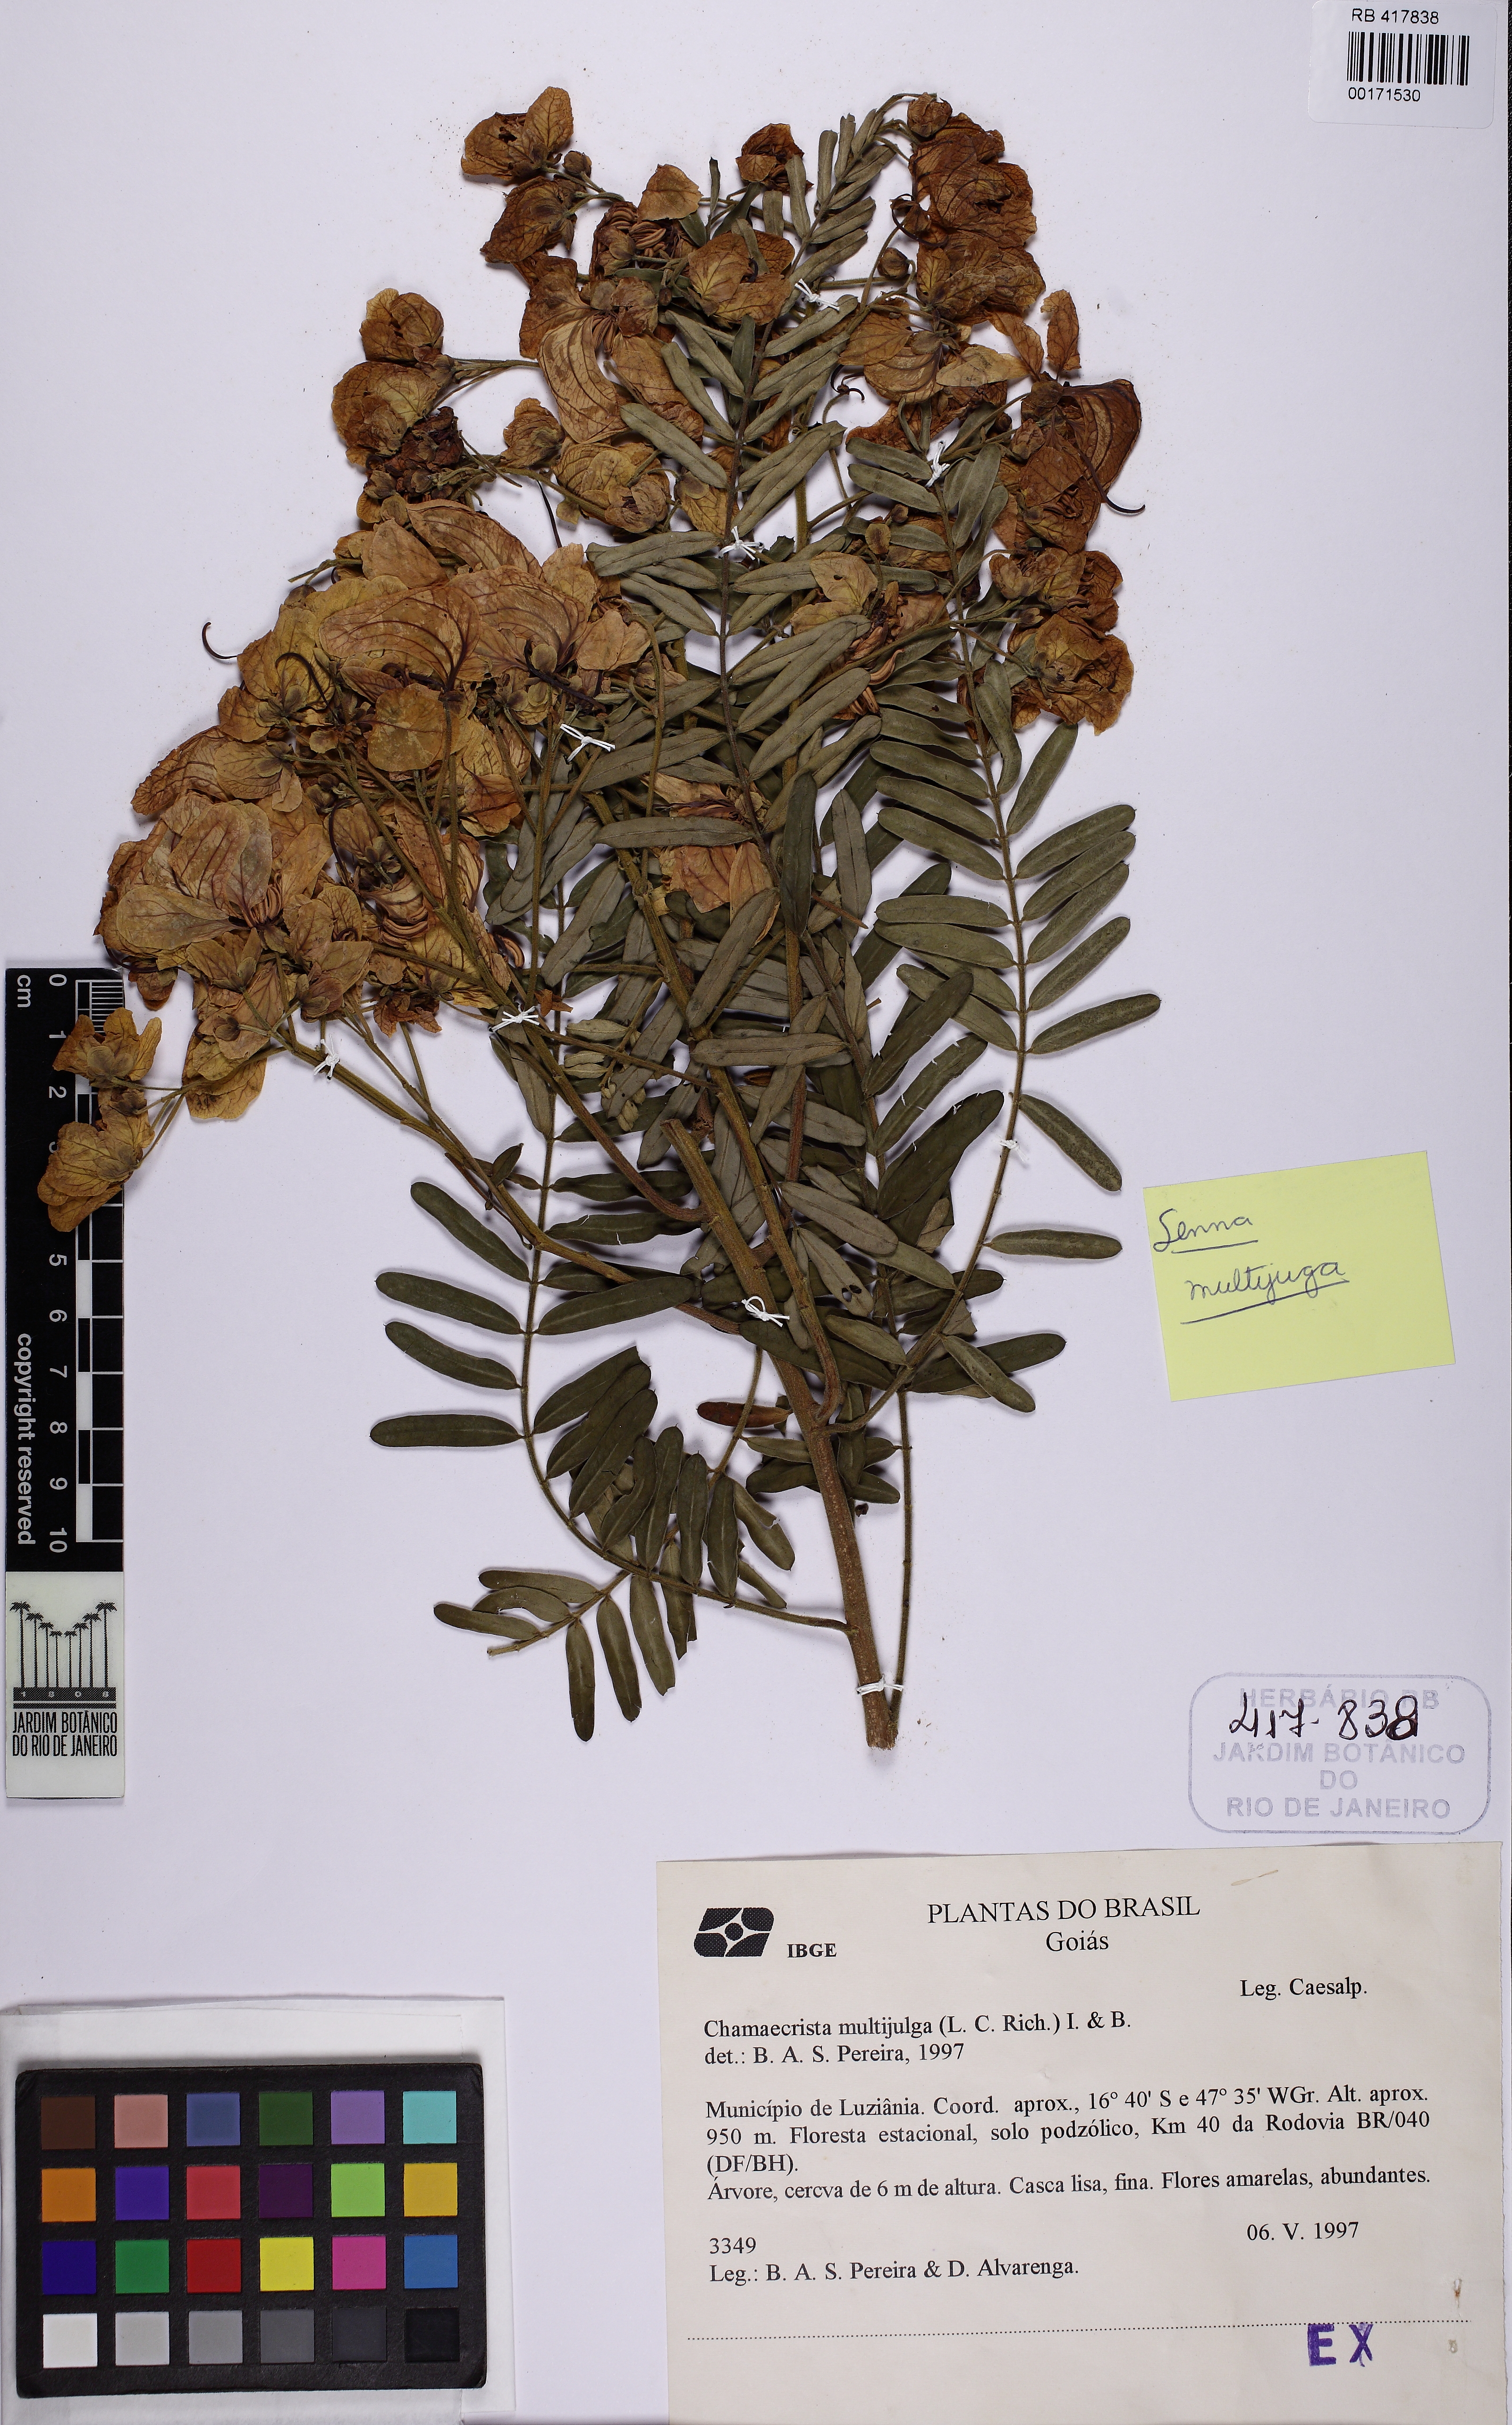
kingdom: Plantae
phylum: Tracheophyta
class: Magnoliopsida
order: Fabales
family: Fabaceae
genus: Senna
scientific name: Senna multijuga
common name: False sicklepod
